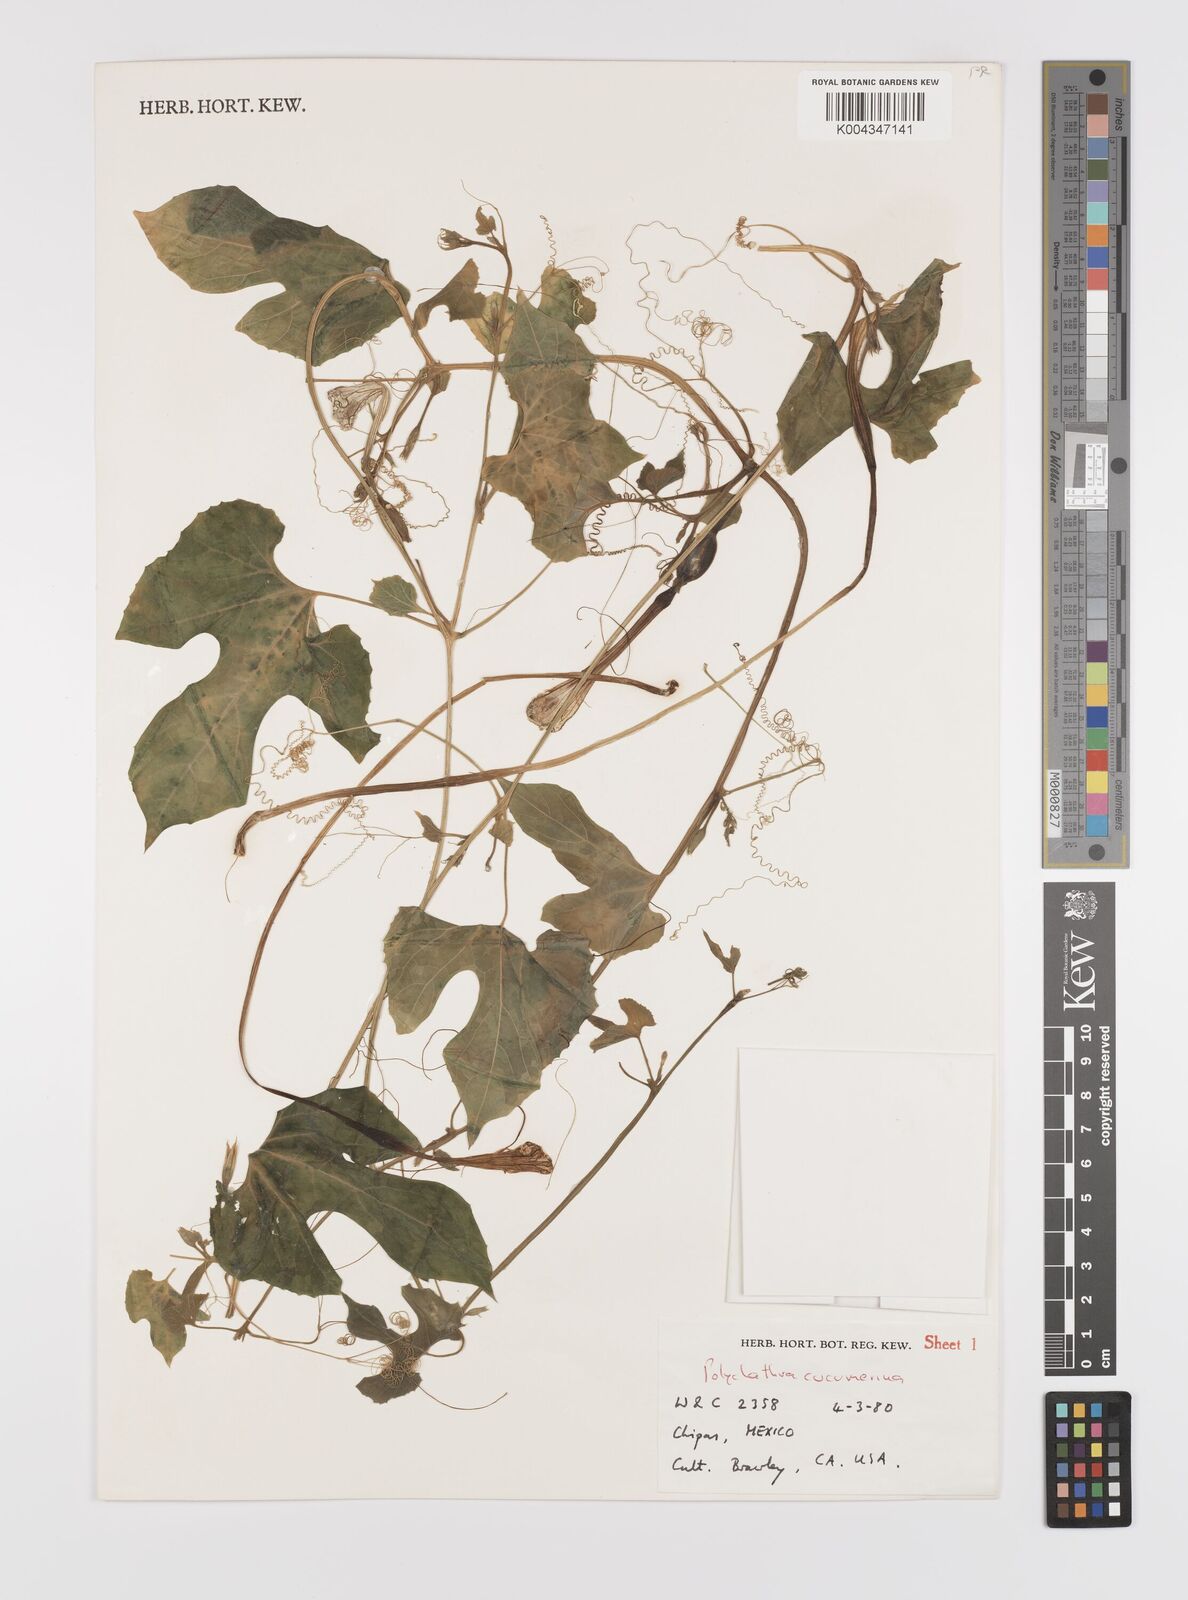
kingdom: Plantae
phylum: Tracheophyta
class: Magnoliopsida
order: Cucurbitales
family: Cucurbitaceae
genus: Polyclathra
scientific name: Polyclathra cucumerina
